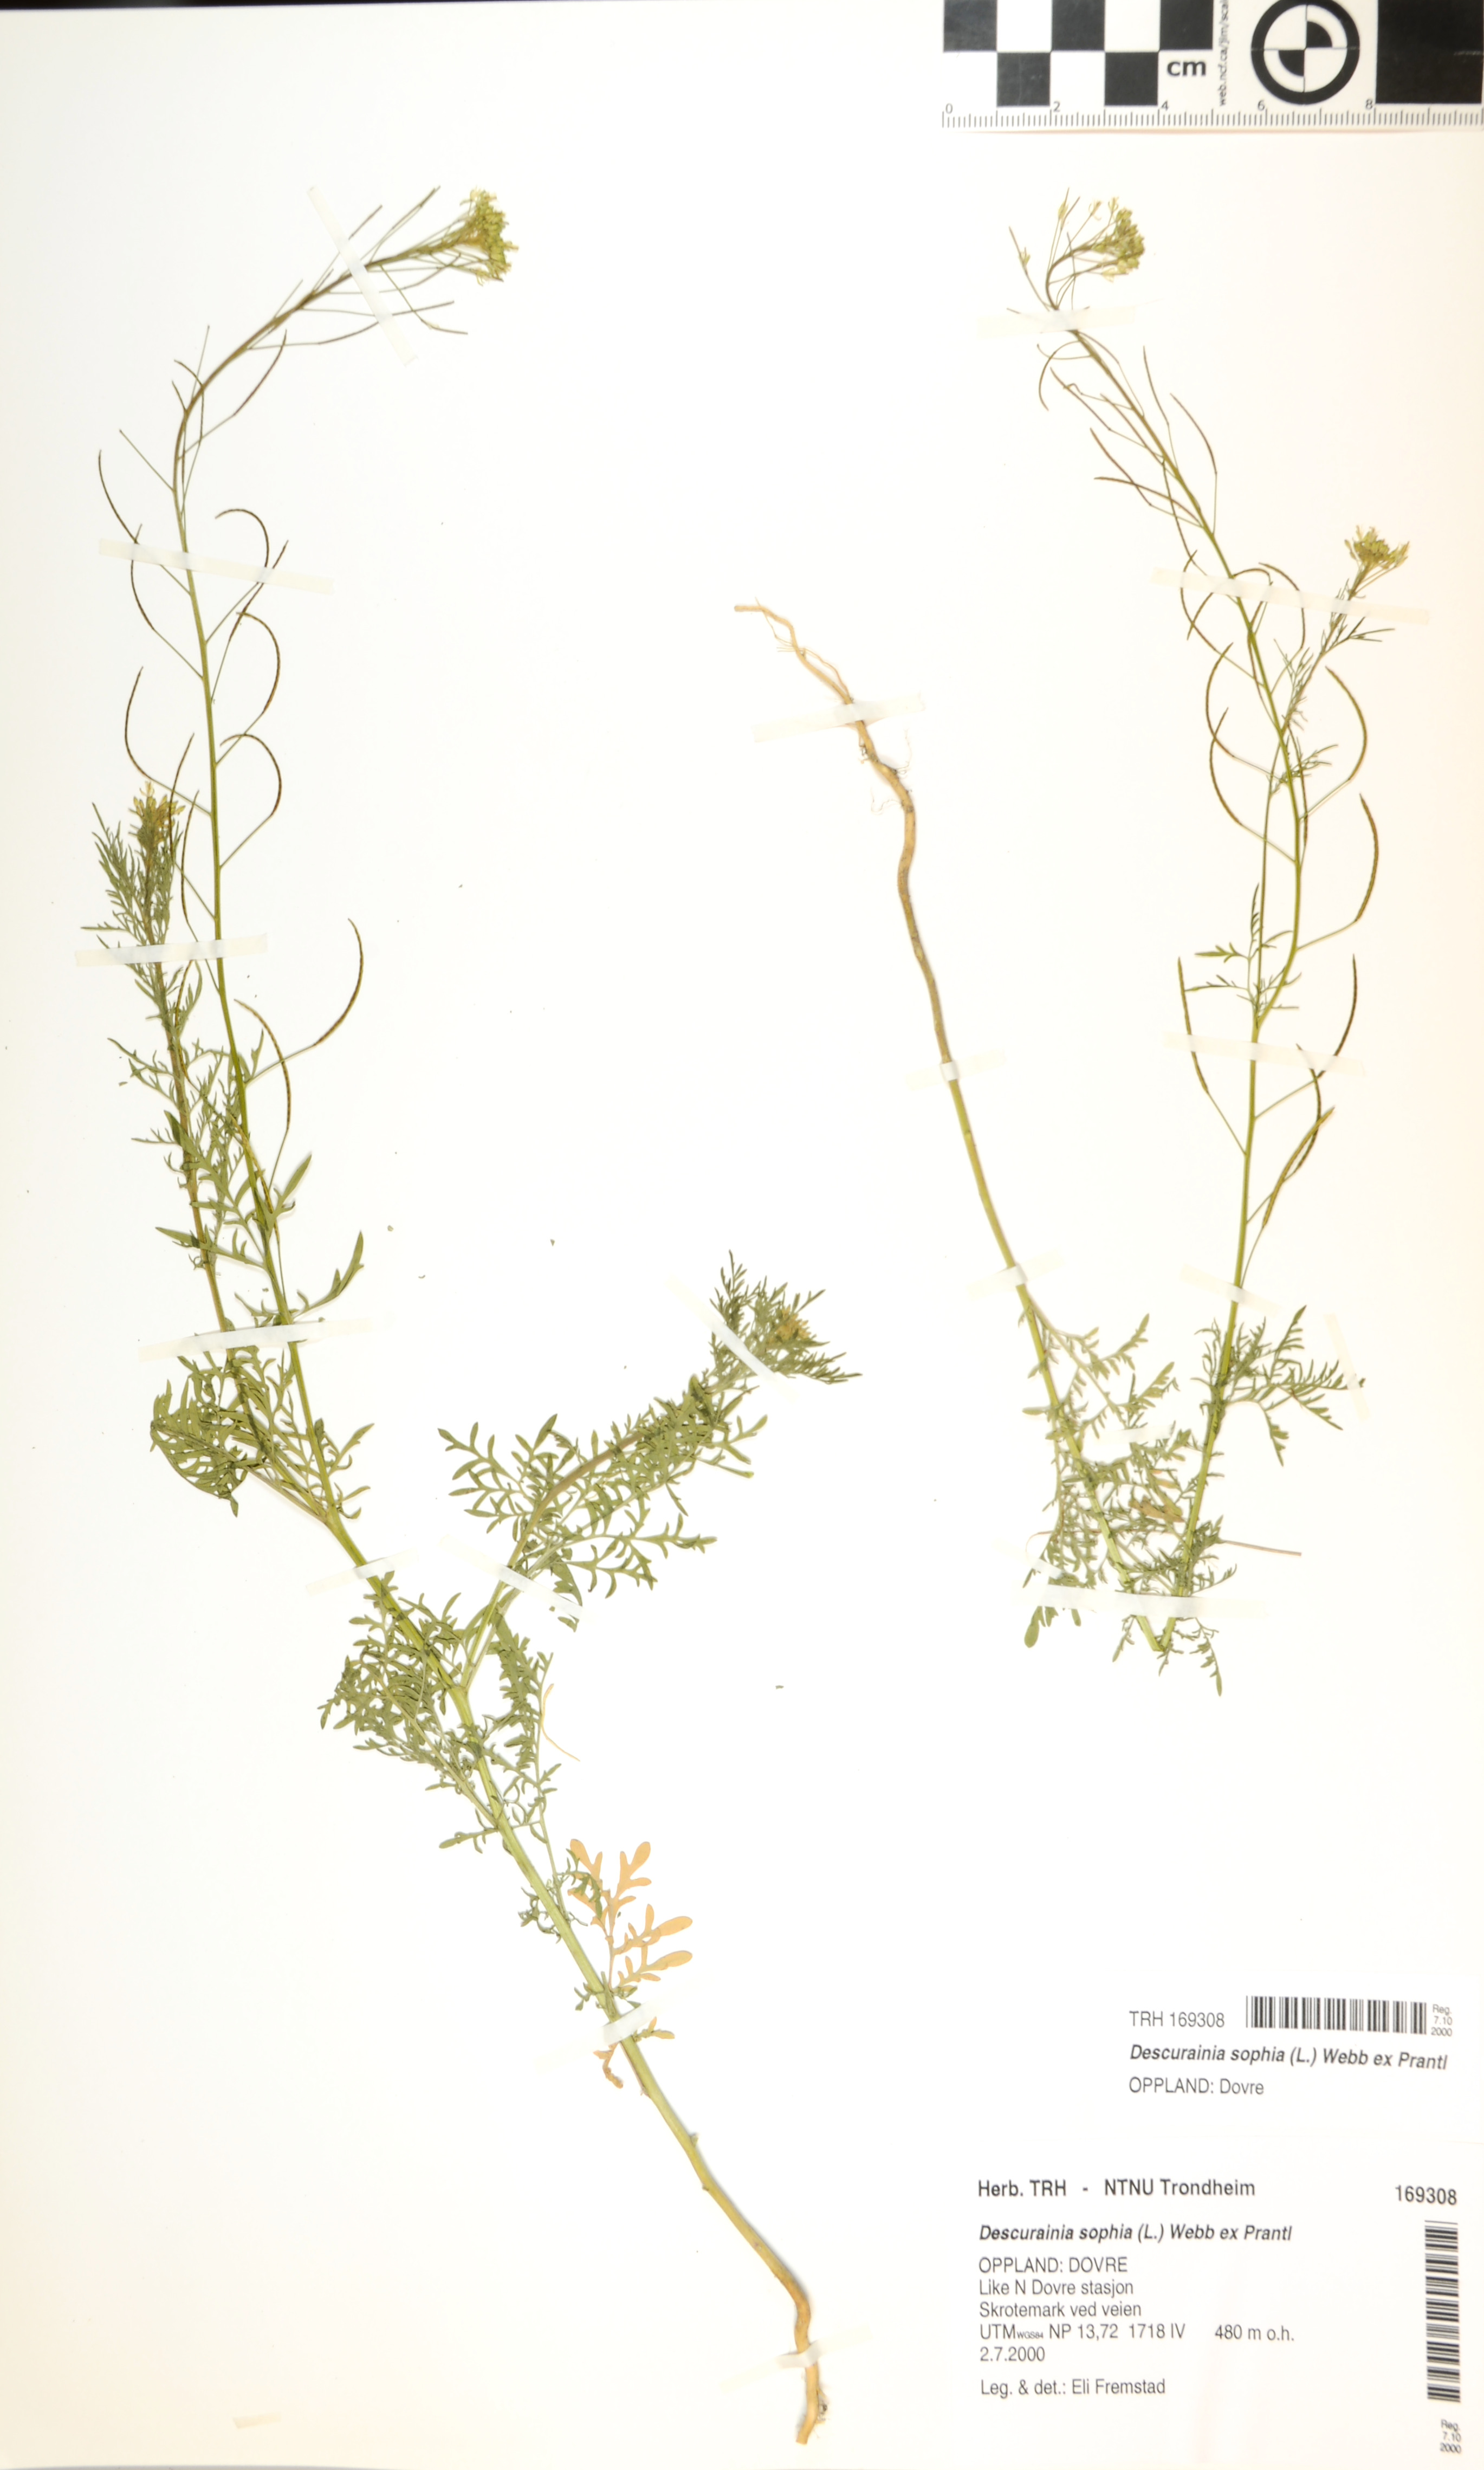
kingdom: Plantae
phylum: Tracheophyta
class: Magnoliopsida
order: Brassicales
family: Brassicaceae
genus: Descurainia
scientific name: Descurainia sophia
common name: Flixweed
